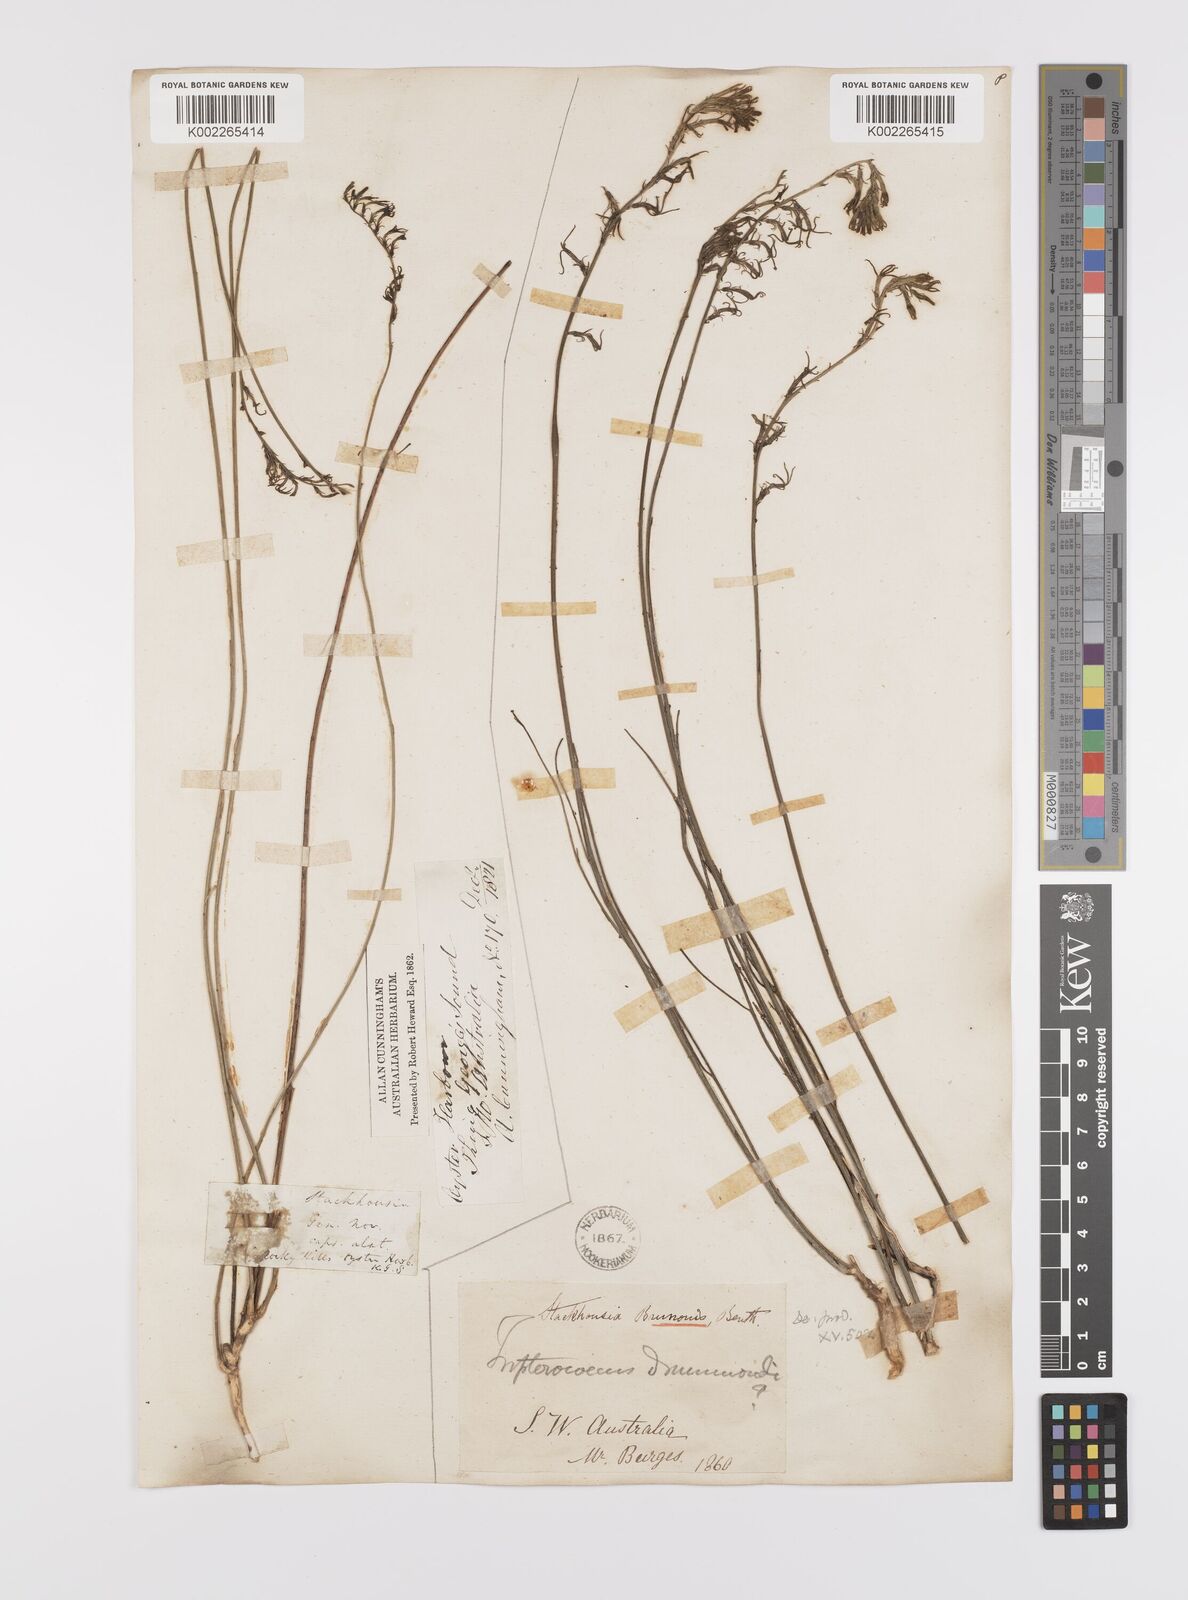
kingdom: Plantae
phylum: Tracheophyta
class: Magnoliopsida
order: Celastrales
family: Celastraceae
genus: Tripterococcus
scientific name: Tripterococcus brunonis
